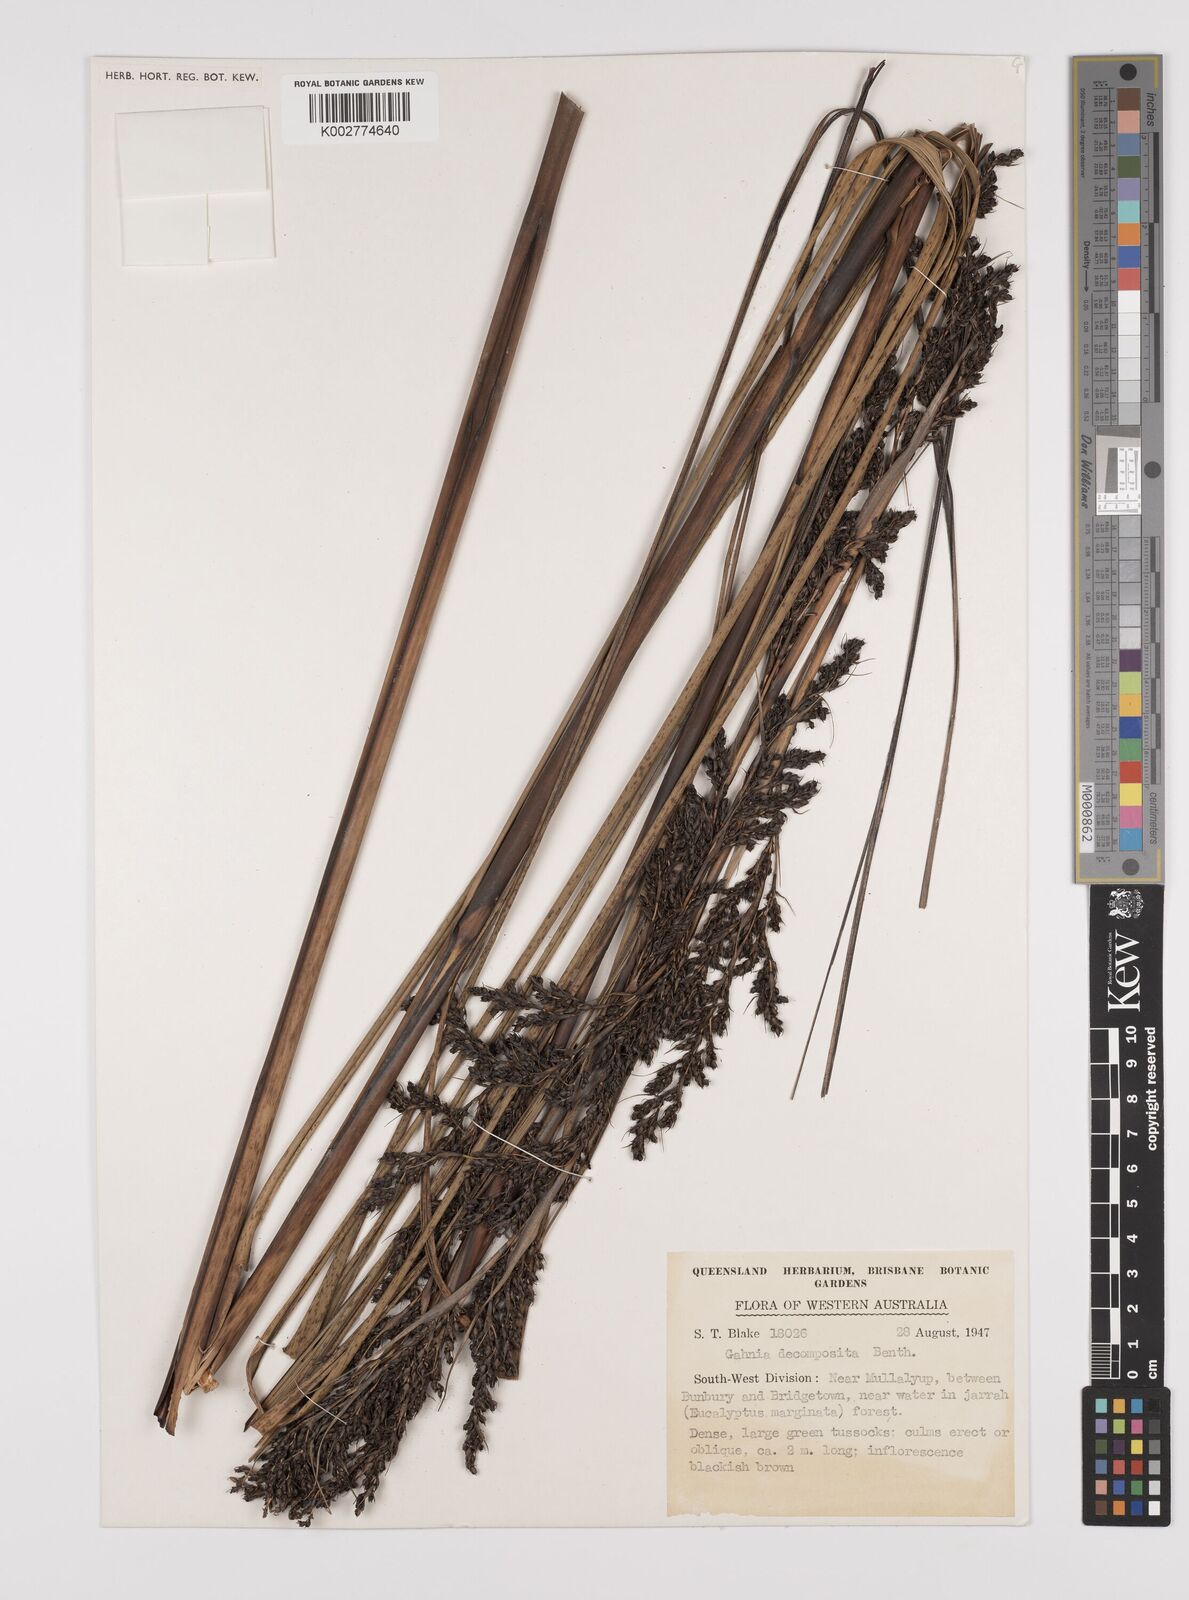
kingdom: Plantae
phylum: Tracheophyta
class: Liliopsida
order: Poales
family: Cyperaceae
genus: Gahnia
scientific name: Gahnia decomposita
